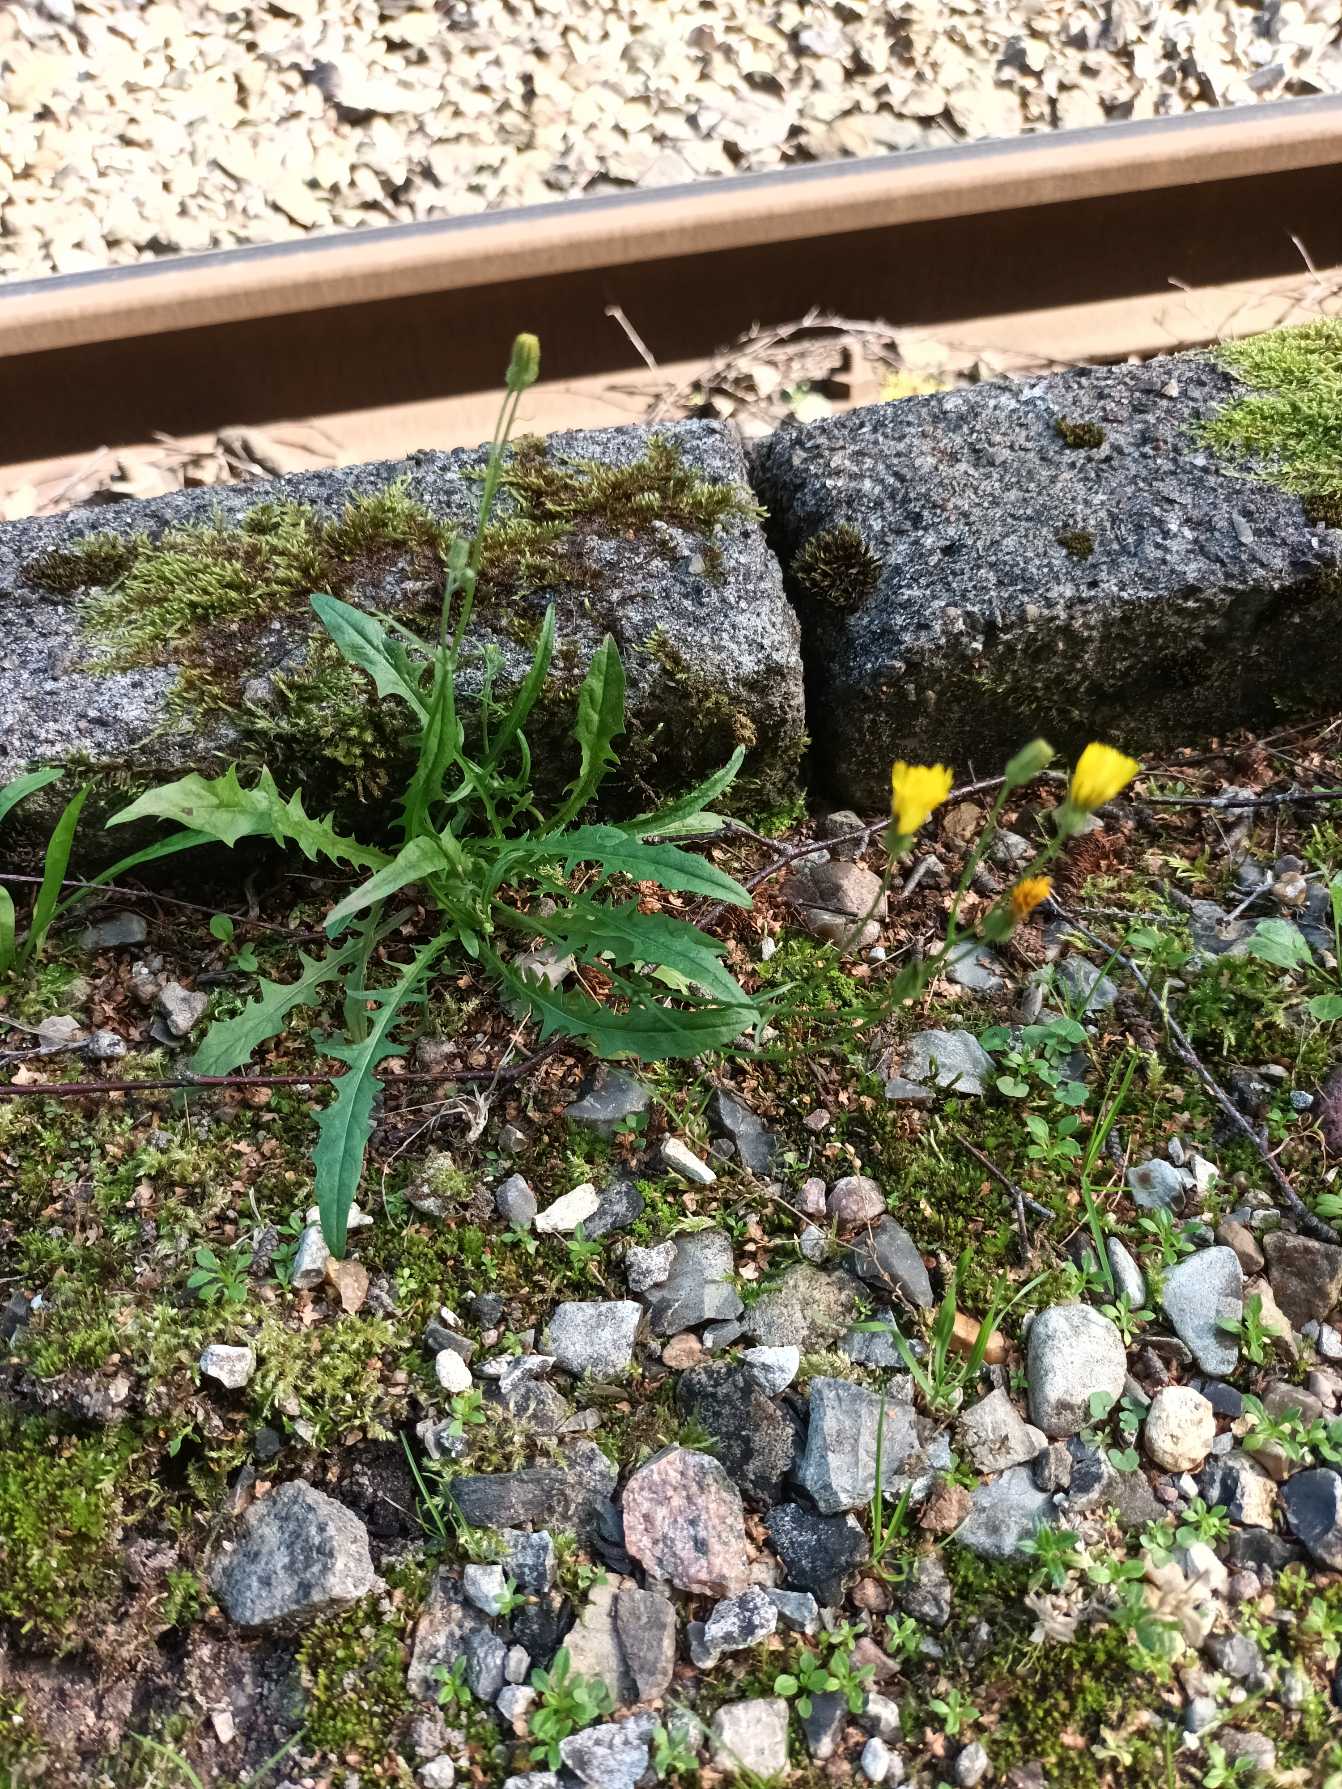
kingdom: Plantae
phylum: Tracheophyta
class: Magnoliopsida
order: Asterales
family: Asteraceae
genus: Crepis
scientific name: Crepis capillaris
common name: Grøn høgeskæg
